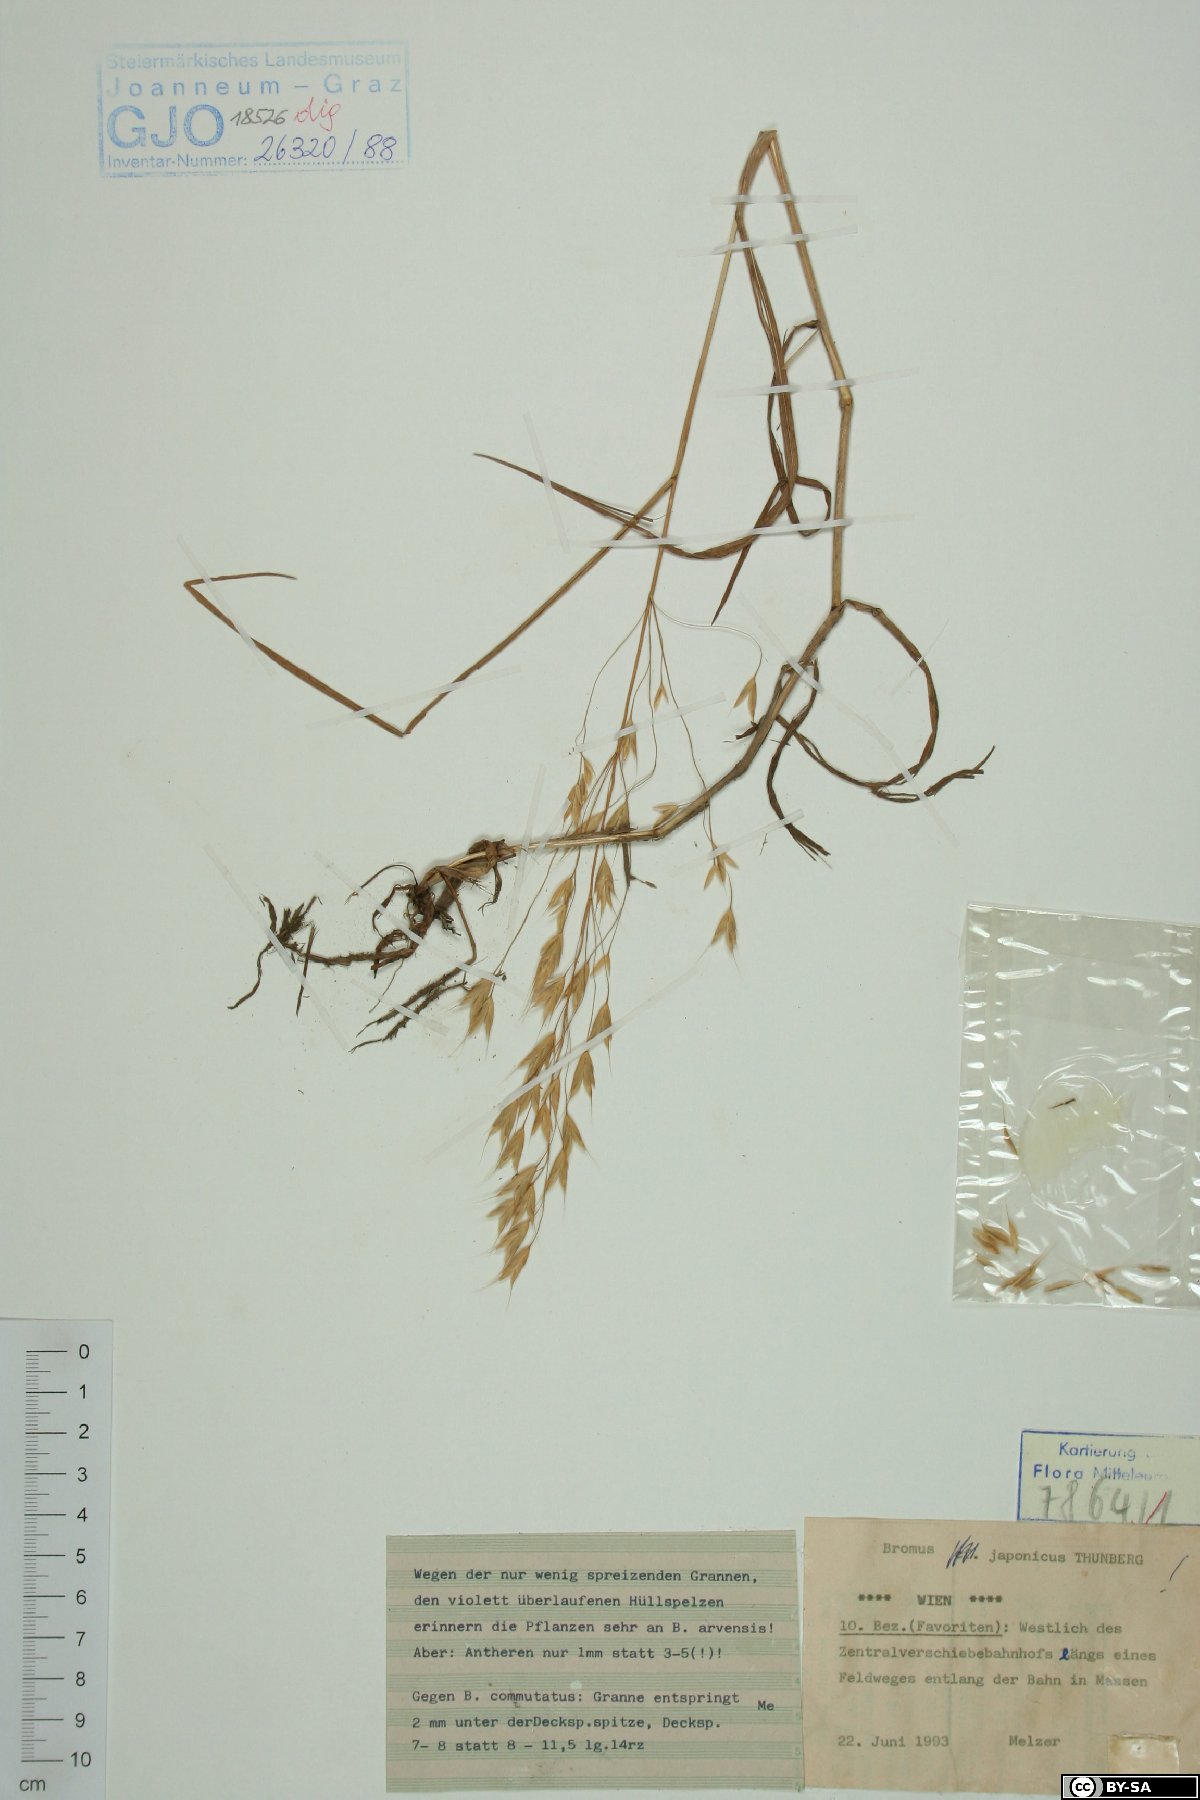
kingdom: Plantae
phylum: Tracheophyta
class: Liliopsida
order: Poales
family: Poaceae
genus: Bromus
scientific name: Bromus japonicus
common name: Japanese brome
